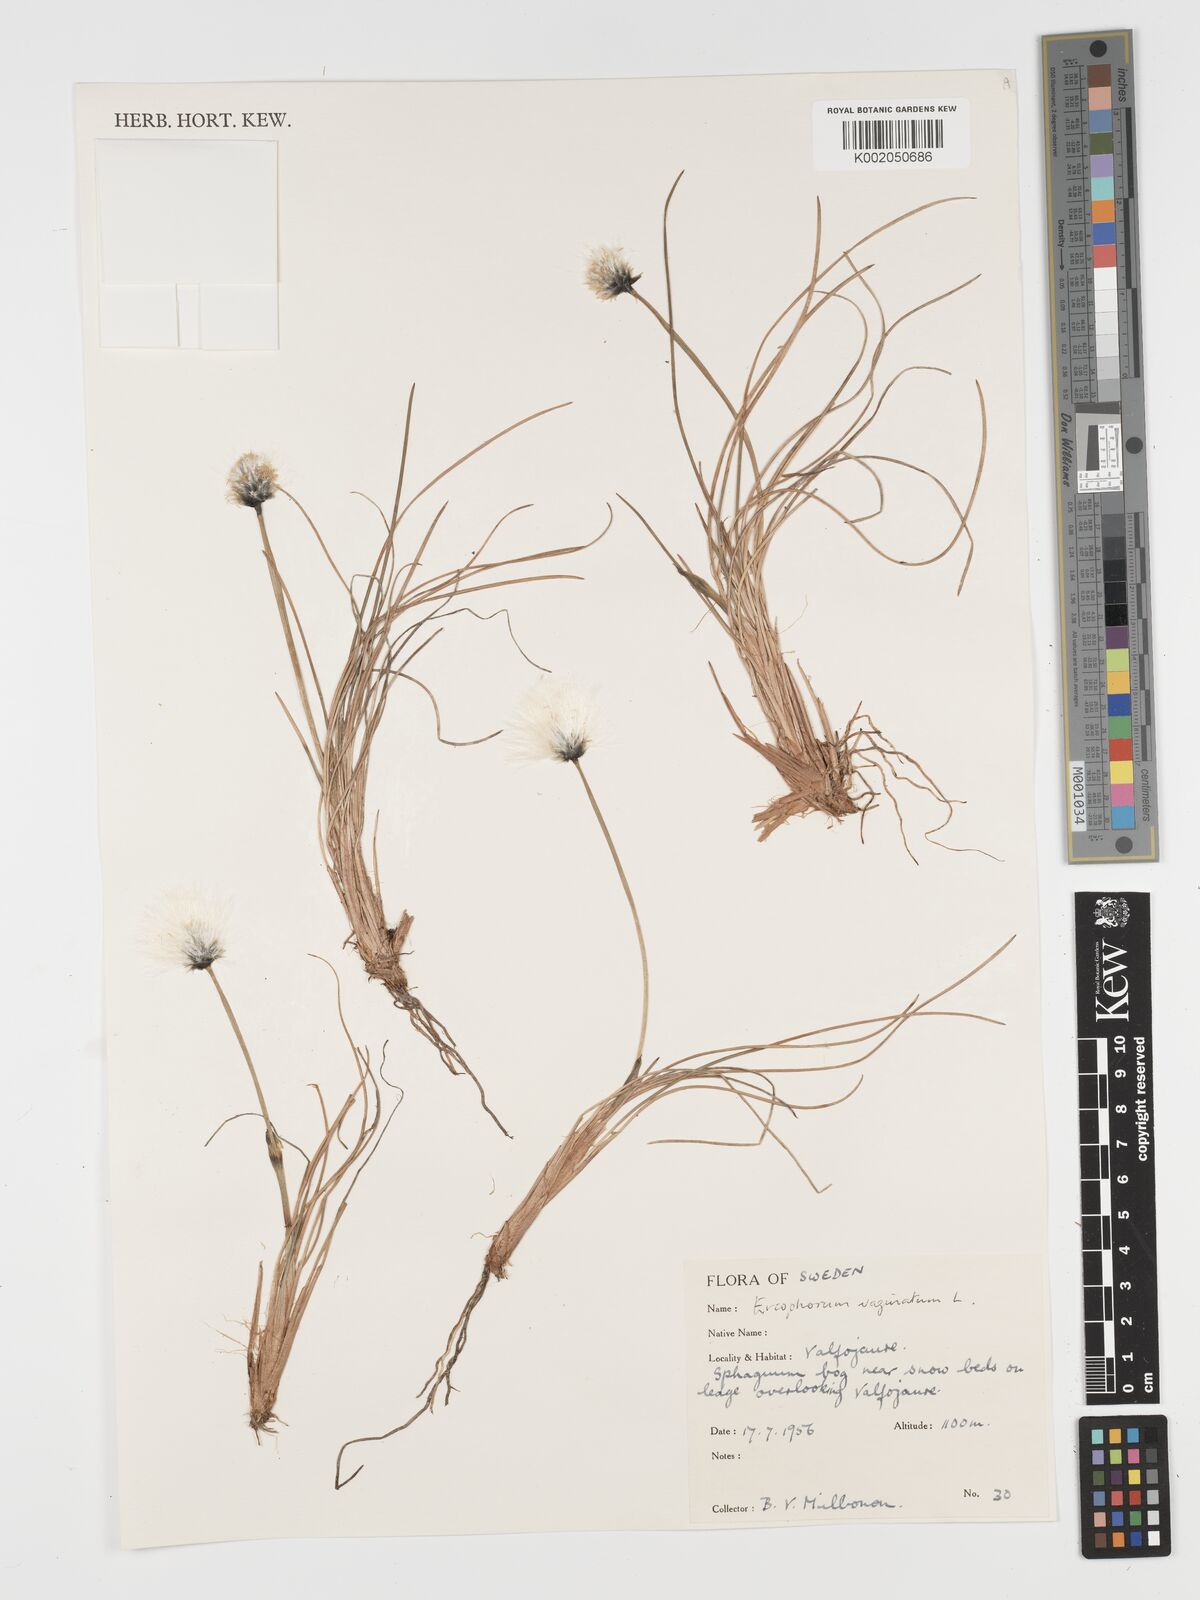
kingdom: Plantae
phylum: Tracheophyta
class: Liliopsida
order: Poales
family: Cyperaceae
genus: Eriophorum
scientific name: Eriophorum vaginatum
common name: Hare's-tail cottongrass
